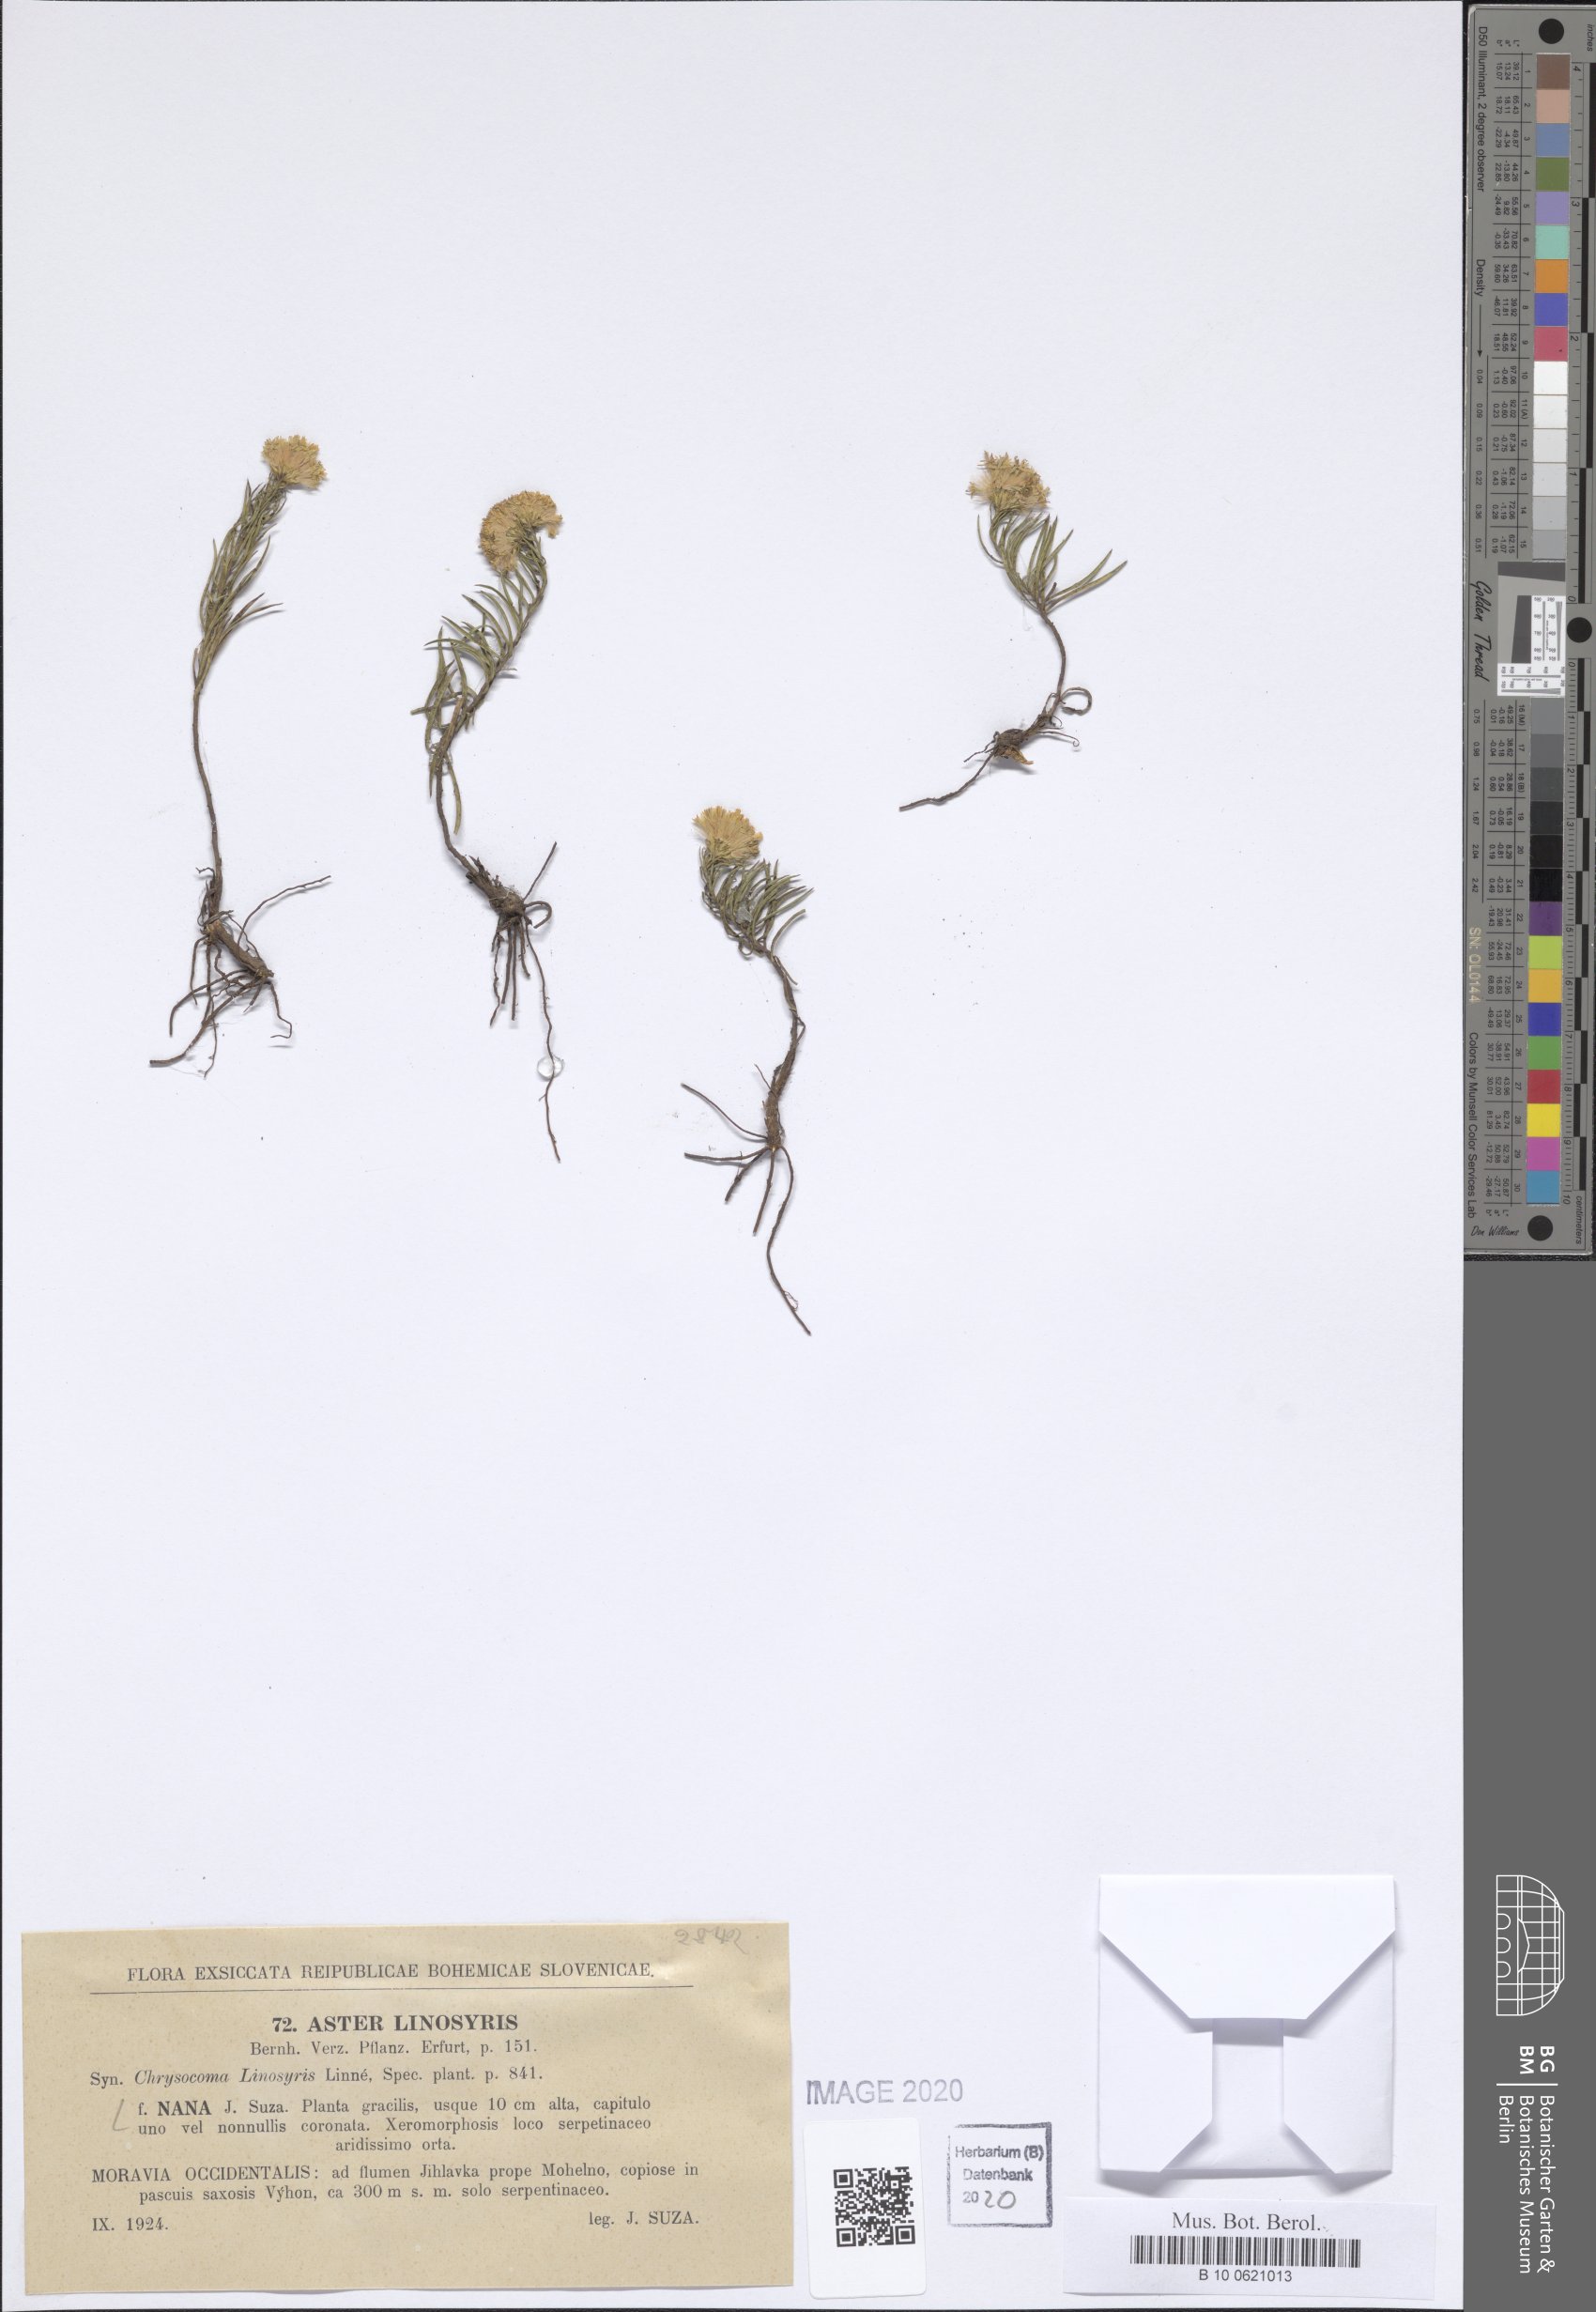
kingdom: Plantae
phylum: Tracheophyta
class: Magnoliopsida
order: Asterales
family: Asteraceae
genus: Galatella
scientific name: Galatella linosyris
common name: Goldilocks aster
